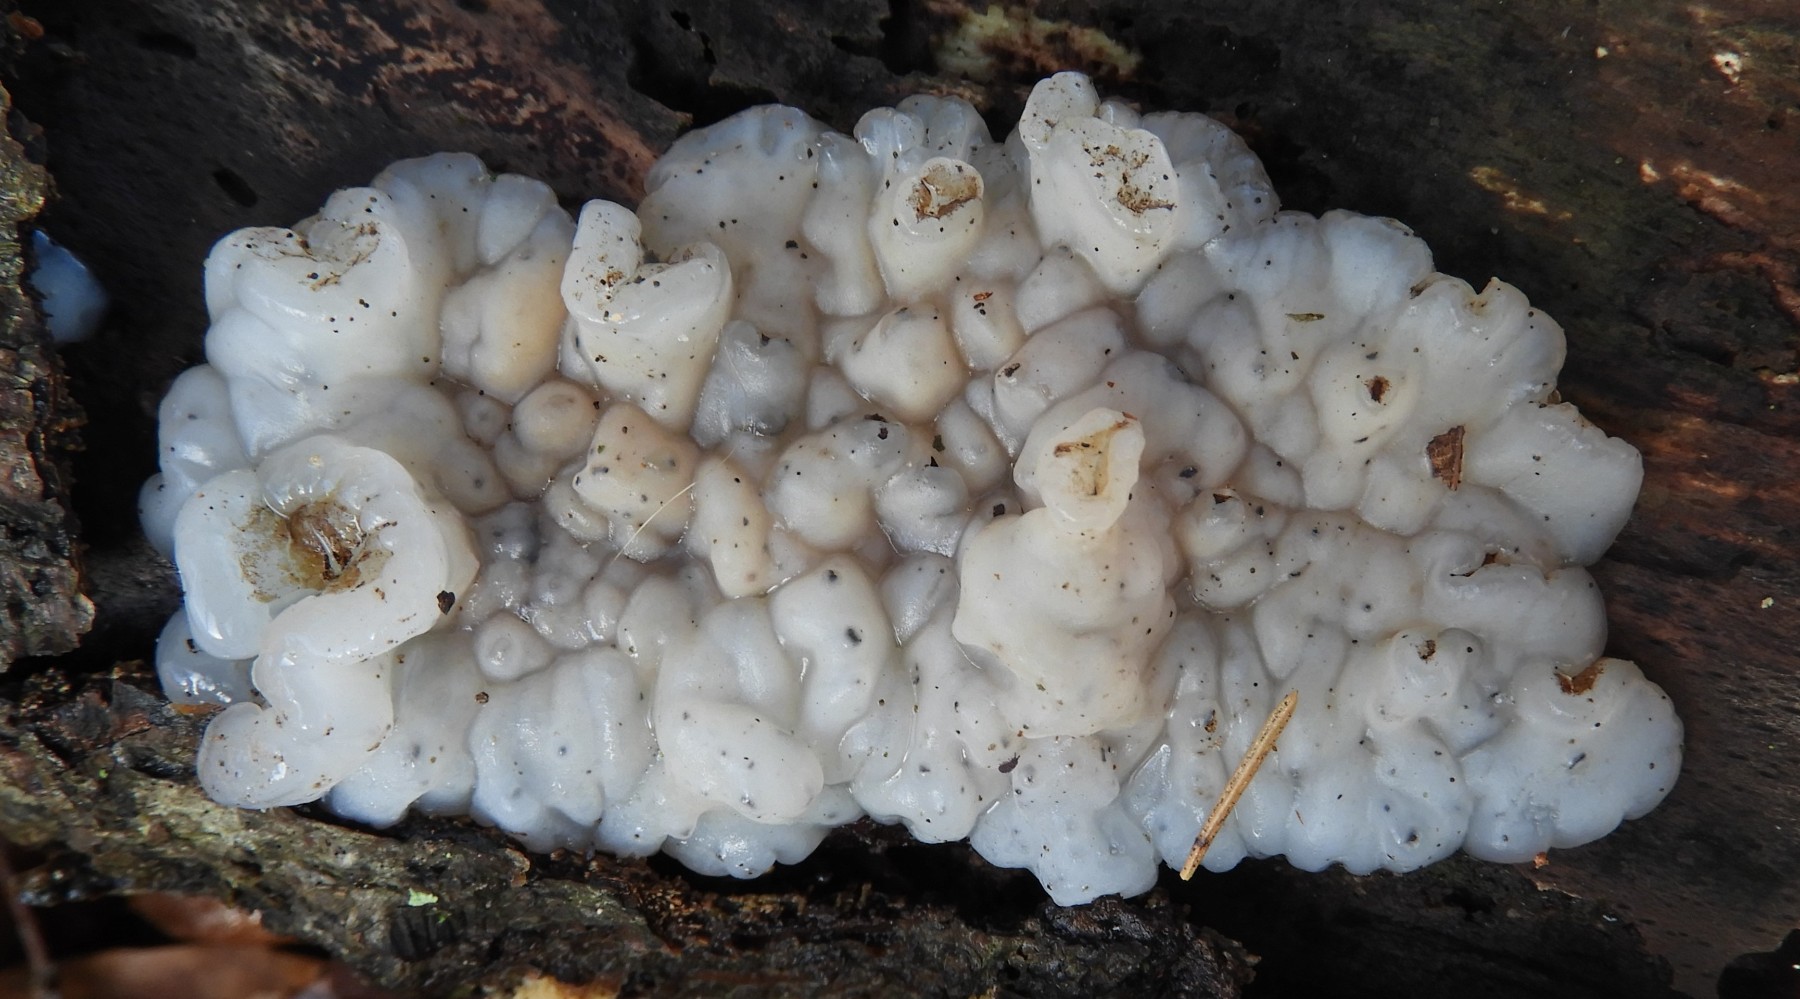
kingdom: Fungi
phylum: Basidiomycota
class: Agaricomycetes
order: Auriculariales
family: Auriculariaceae
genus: Exidia
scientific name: Exidia thuretiana
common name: hvidlig bævretop
